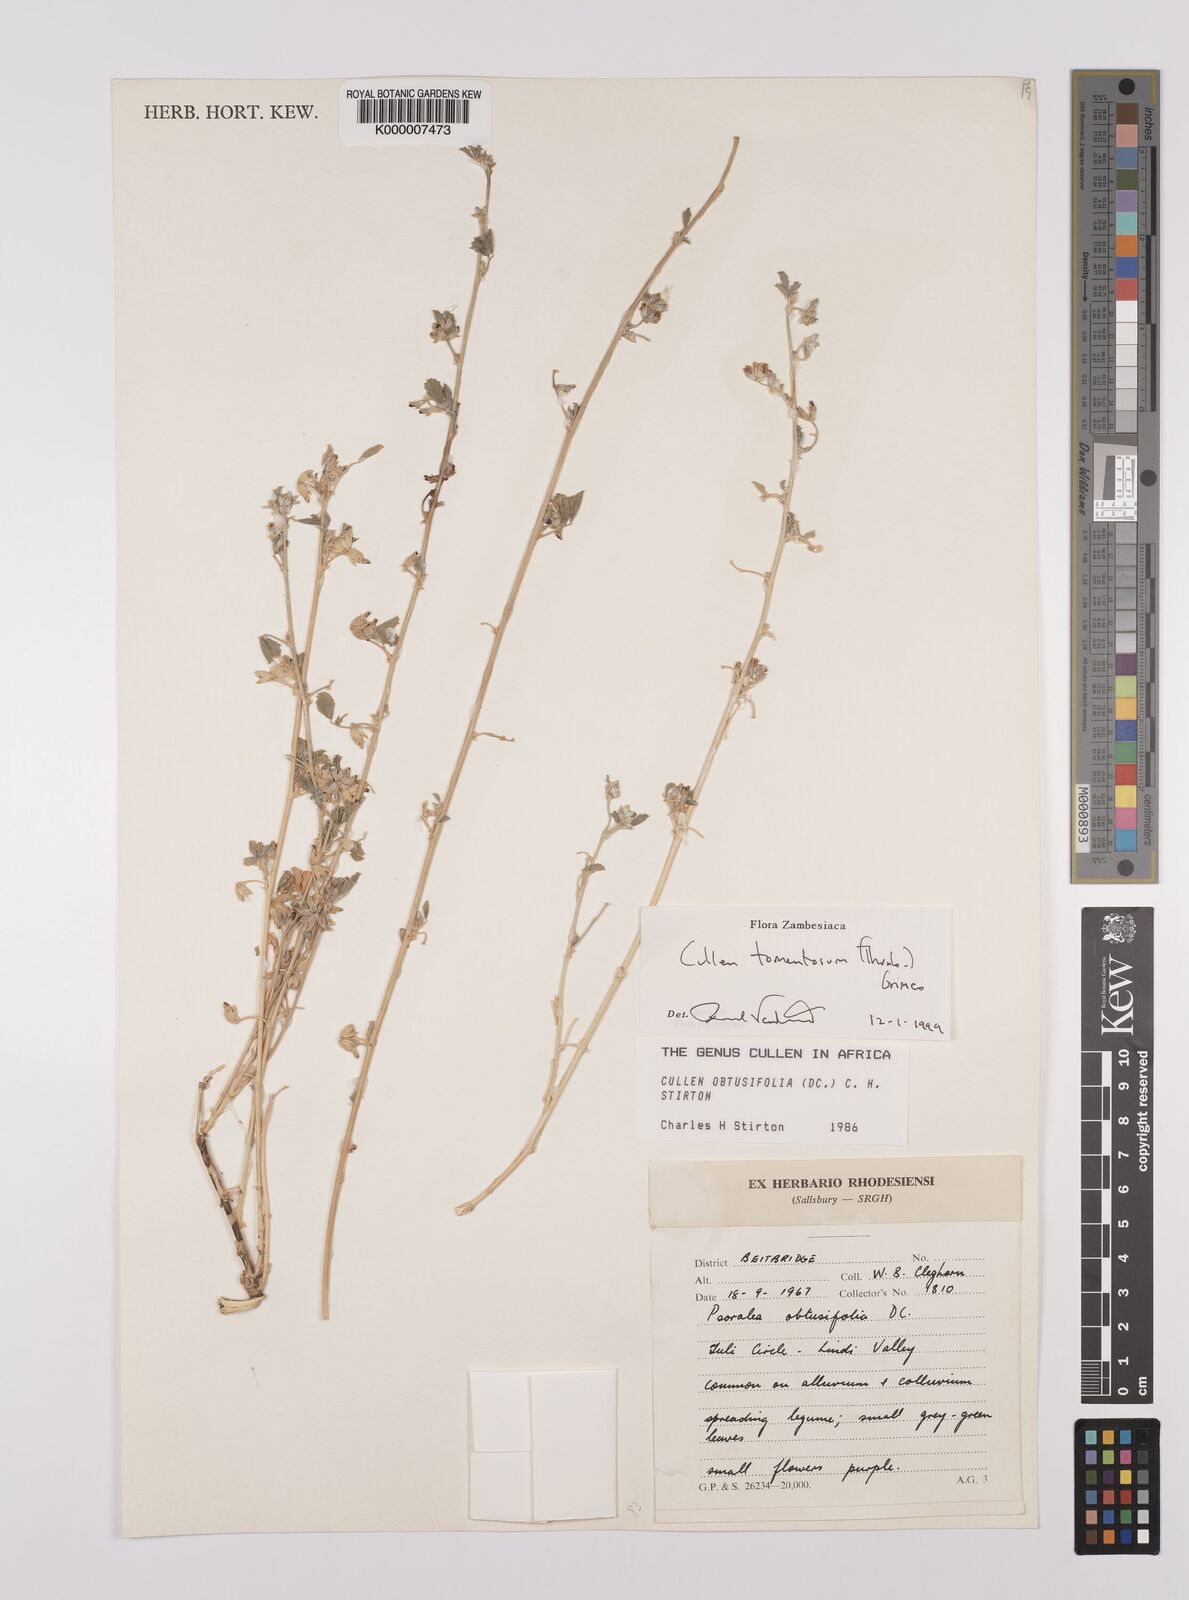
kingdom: Plantae
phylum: Tracheophyta
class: Magnoliopsida
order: Fabales
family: Fabaceae
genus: Cullen
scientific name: Cullen tomentosum
